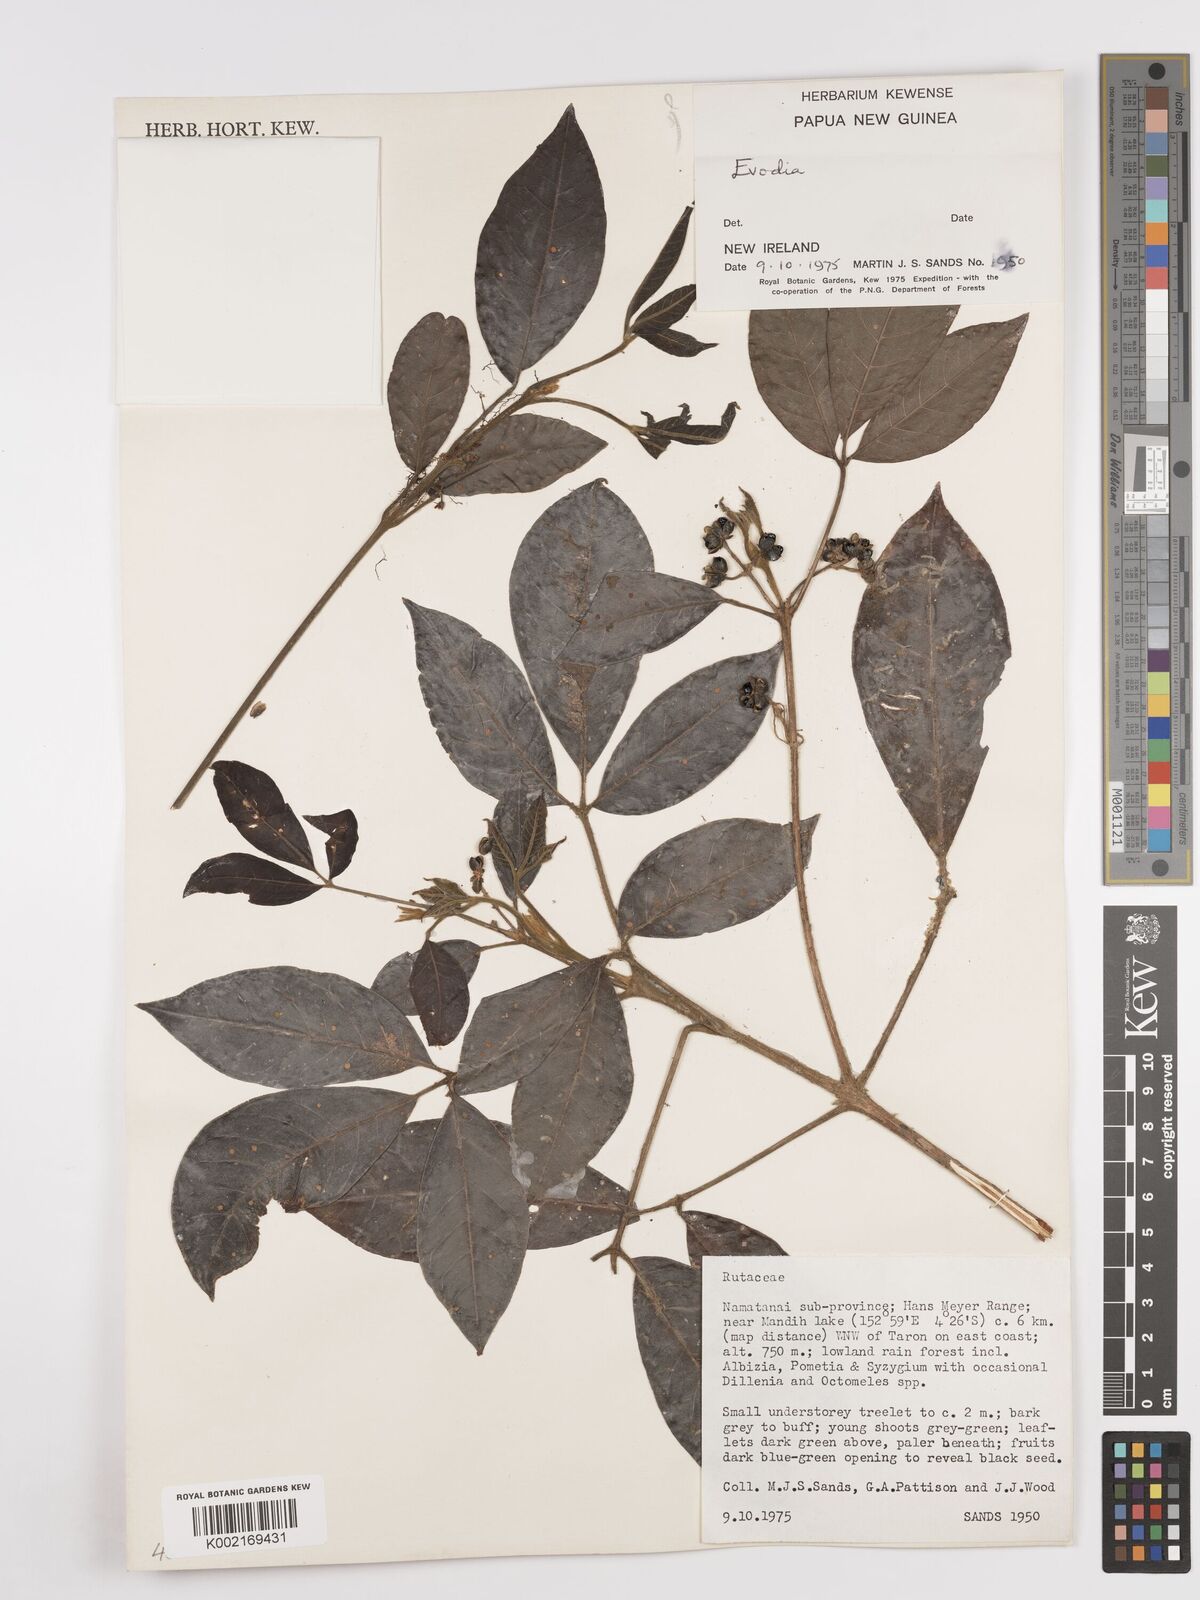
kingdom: Plantae
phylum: Tracheophyta
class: Magnoliopsida
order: Sapindales
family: Rutaceae
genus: Euodia
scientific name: Euodia
